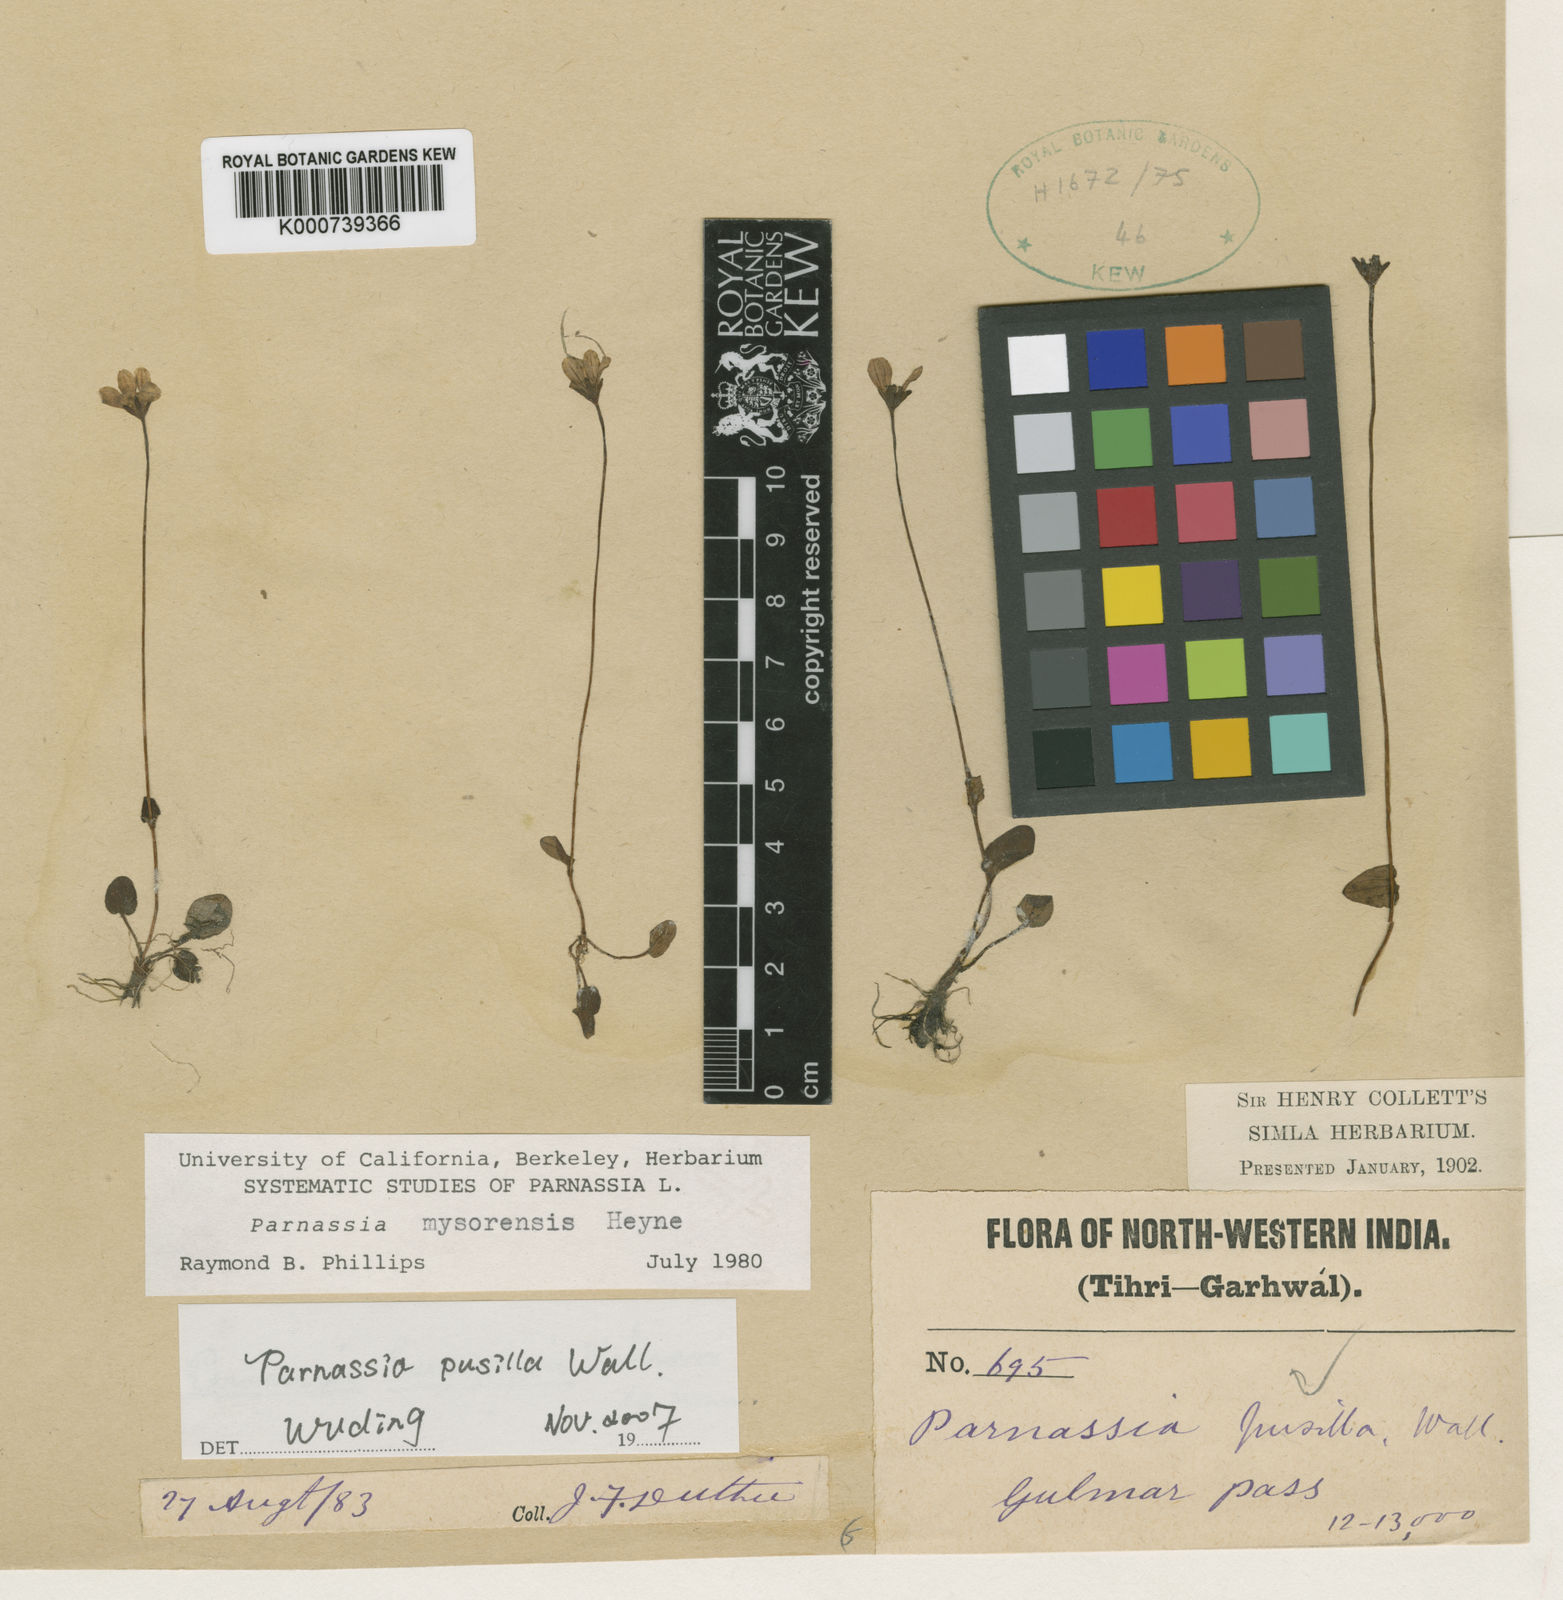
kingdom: Plantae
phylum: Tracheophyta
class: Magnoliopsida
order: Celastrales
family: Parnassiaceae
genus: Parnassia
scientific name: Parnassia mysorensis
